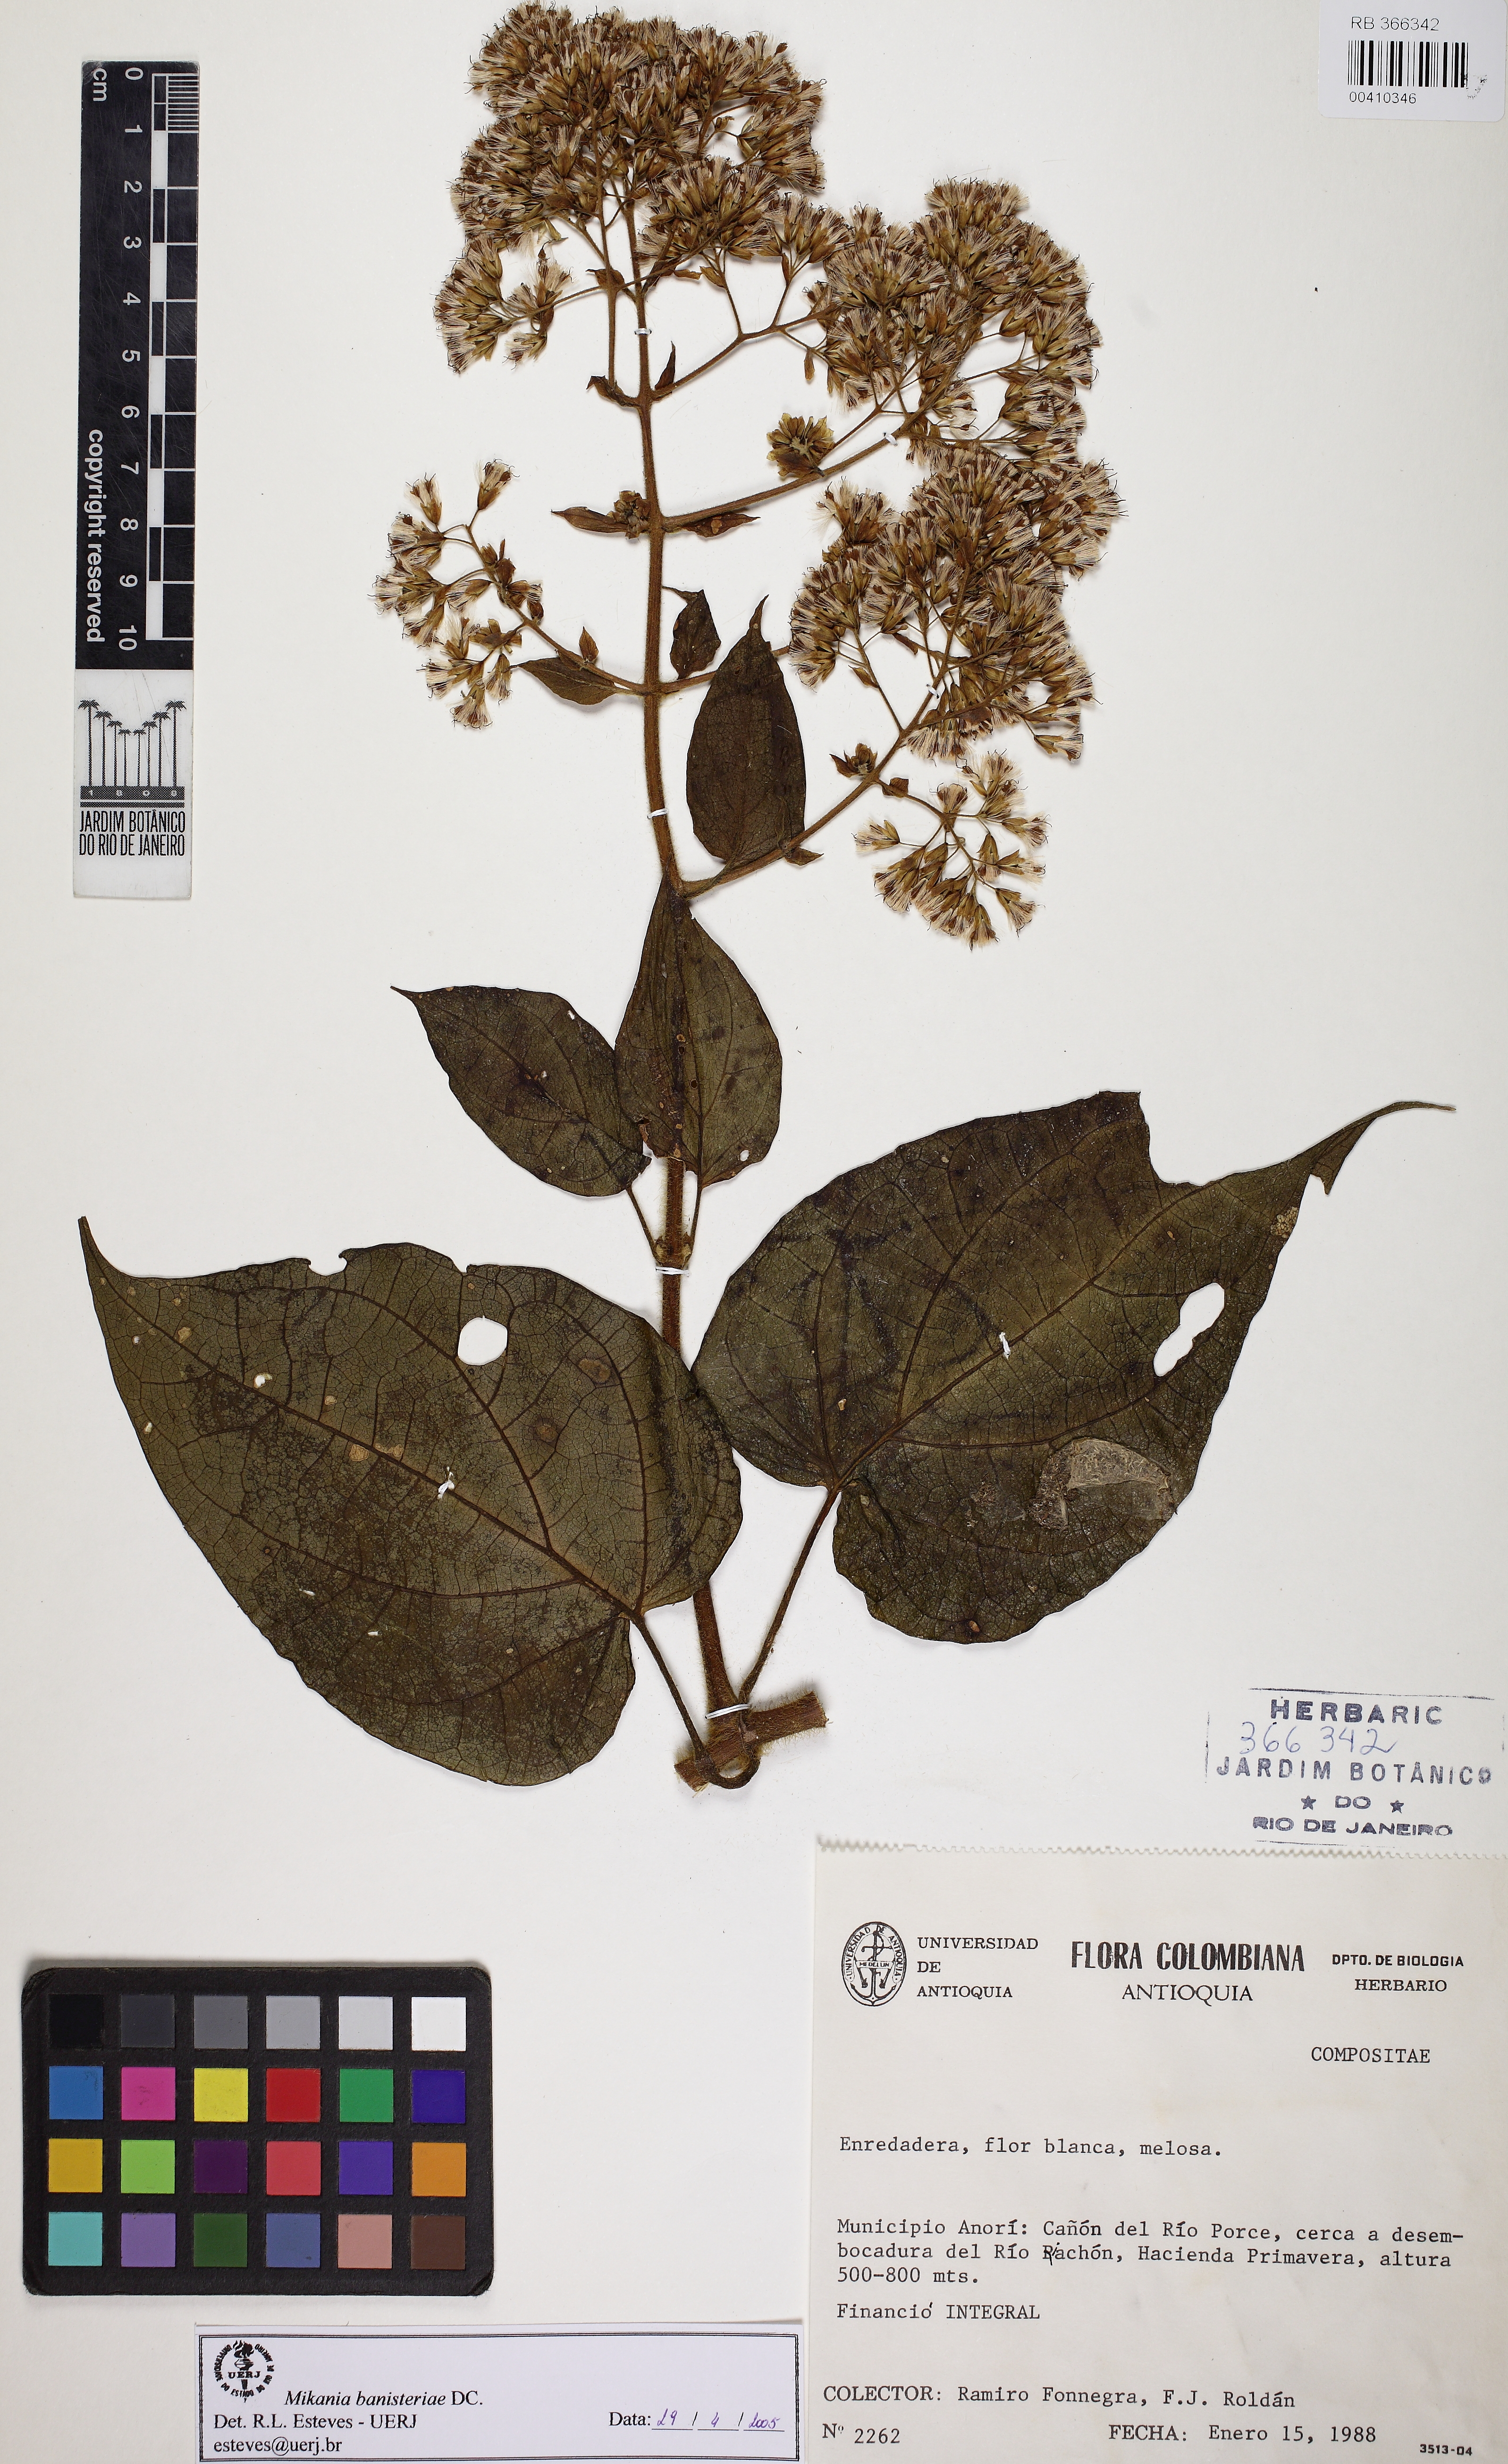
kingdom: Plantae
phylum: Tracheophyta
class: Magnoliopsida
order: Asterales
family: Asteraceae
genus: Mikania
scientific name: Mikania banisteriae
